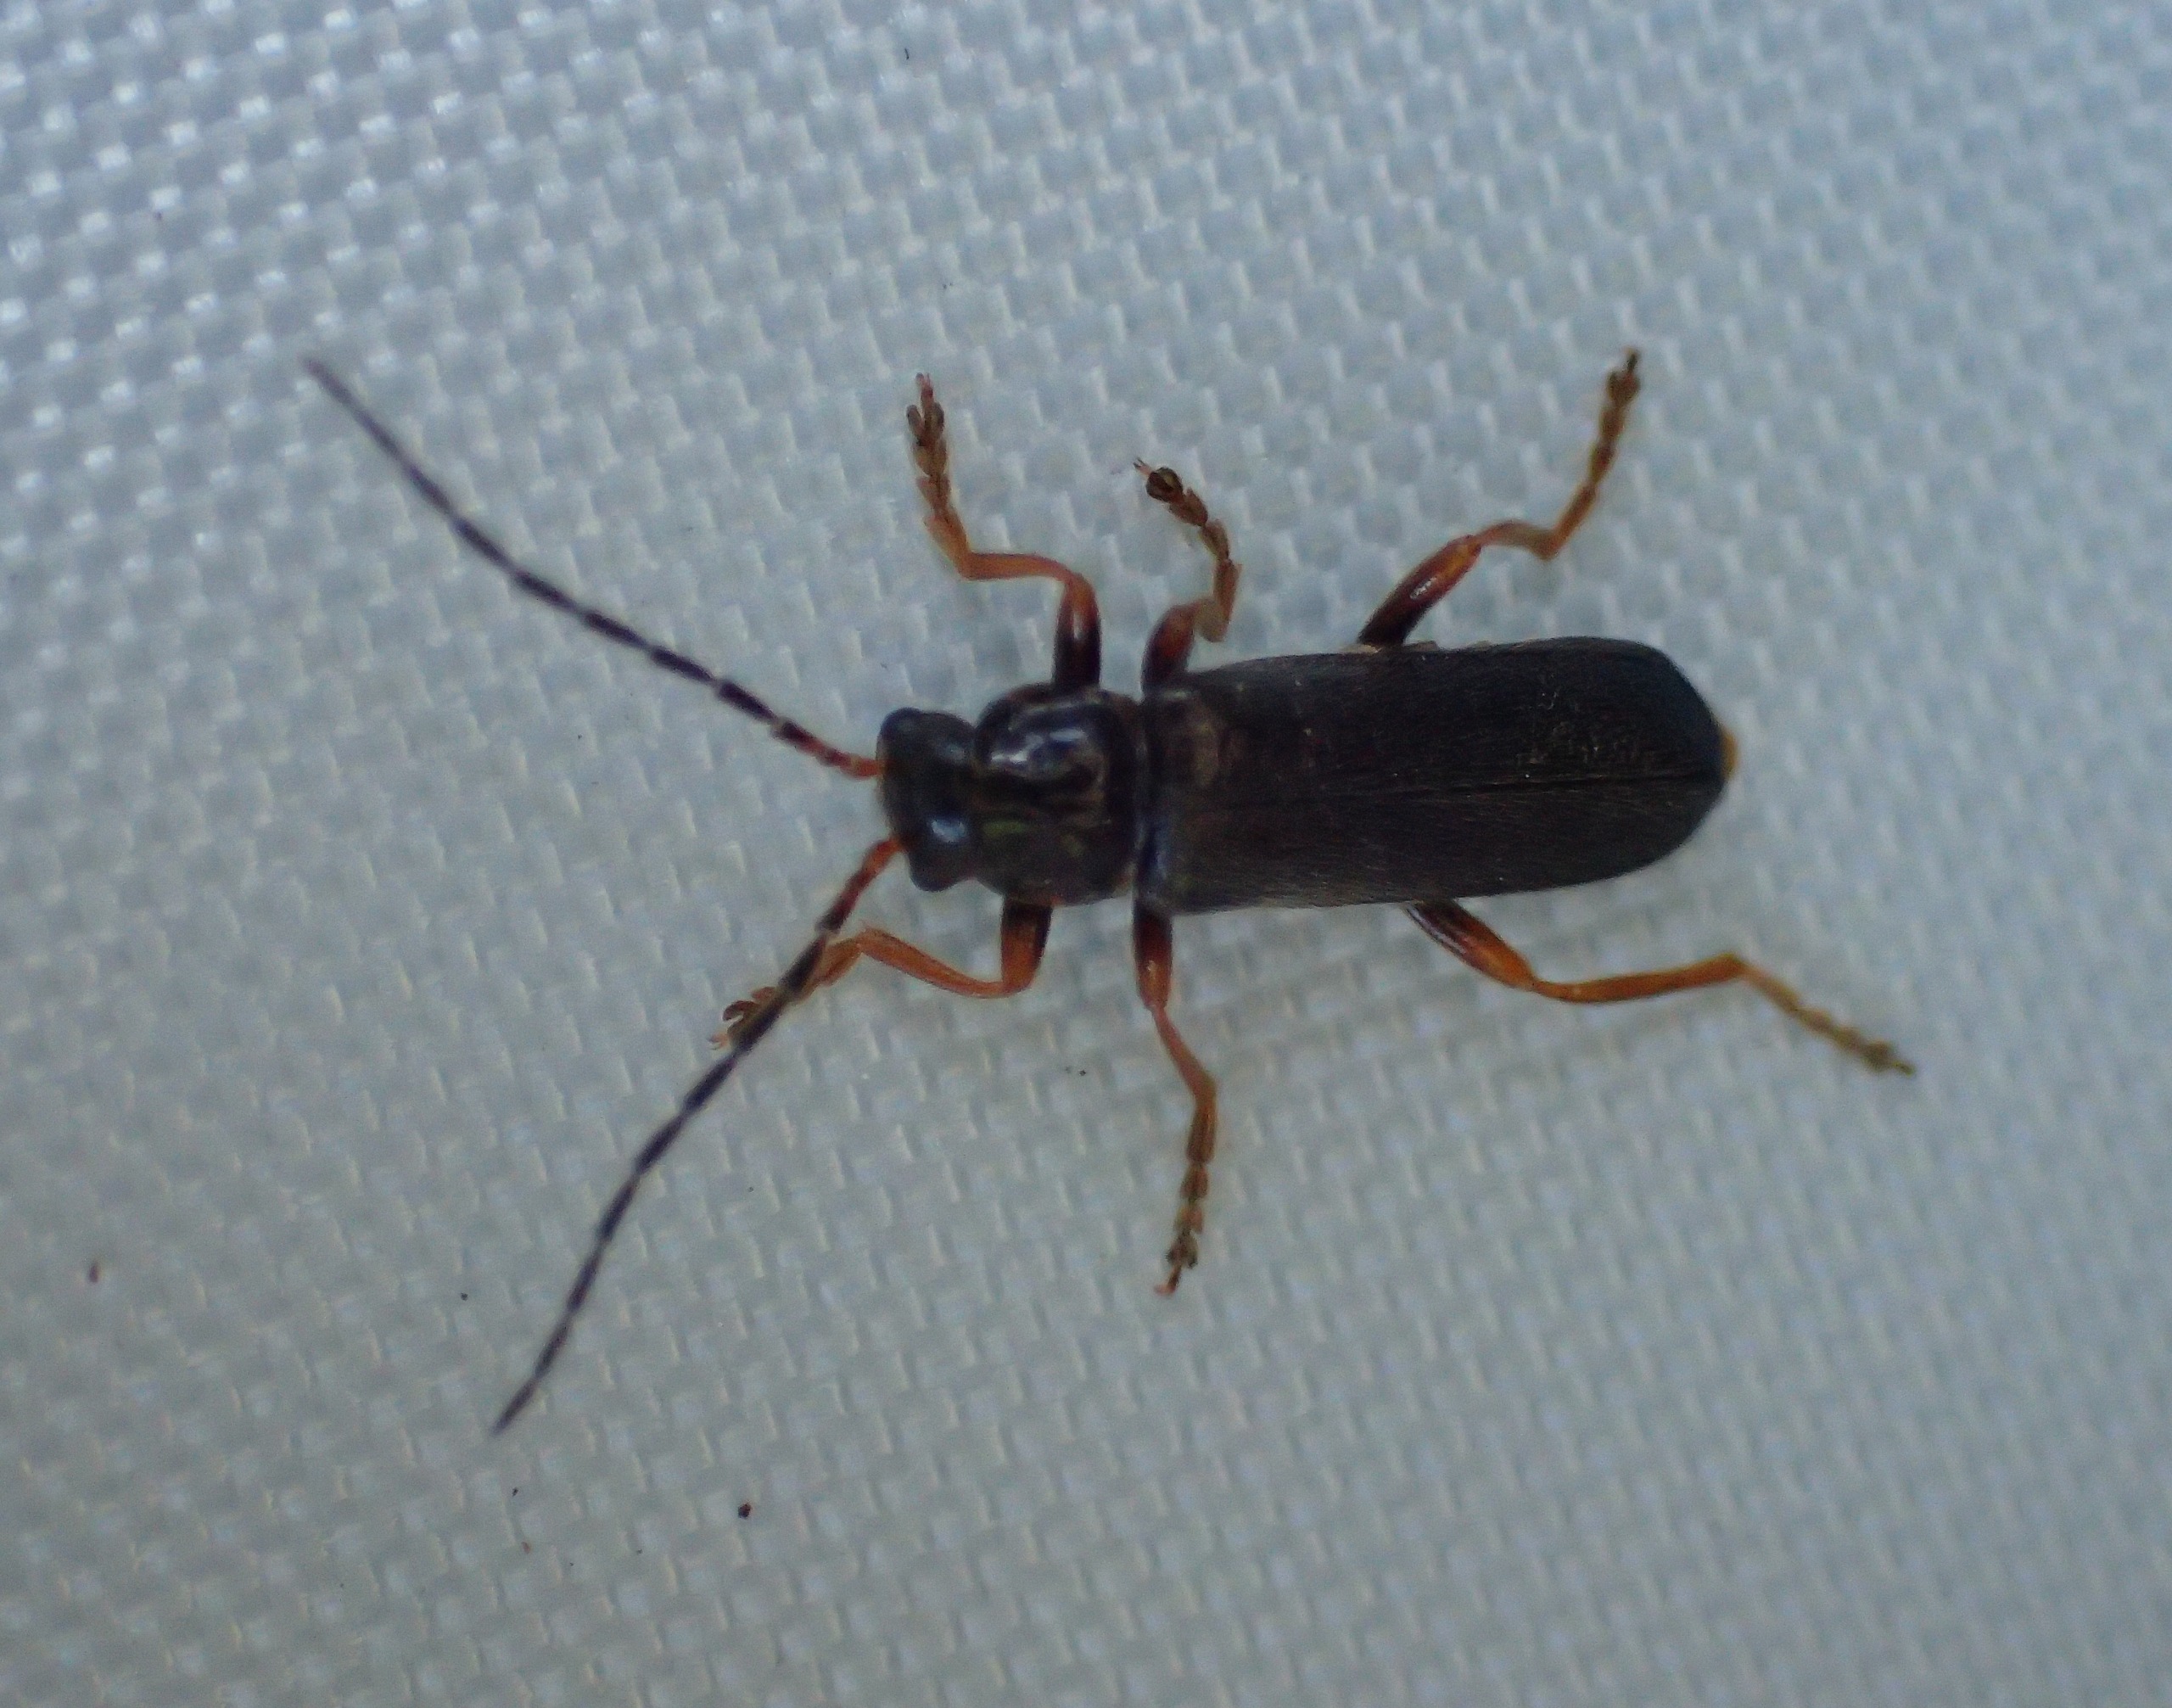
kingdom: Animalia
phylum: Arthropoda
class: Insecta
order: Coleoptera
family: Cantharidae
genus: Cantharis
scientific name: Cantharis flavilabris
